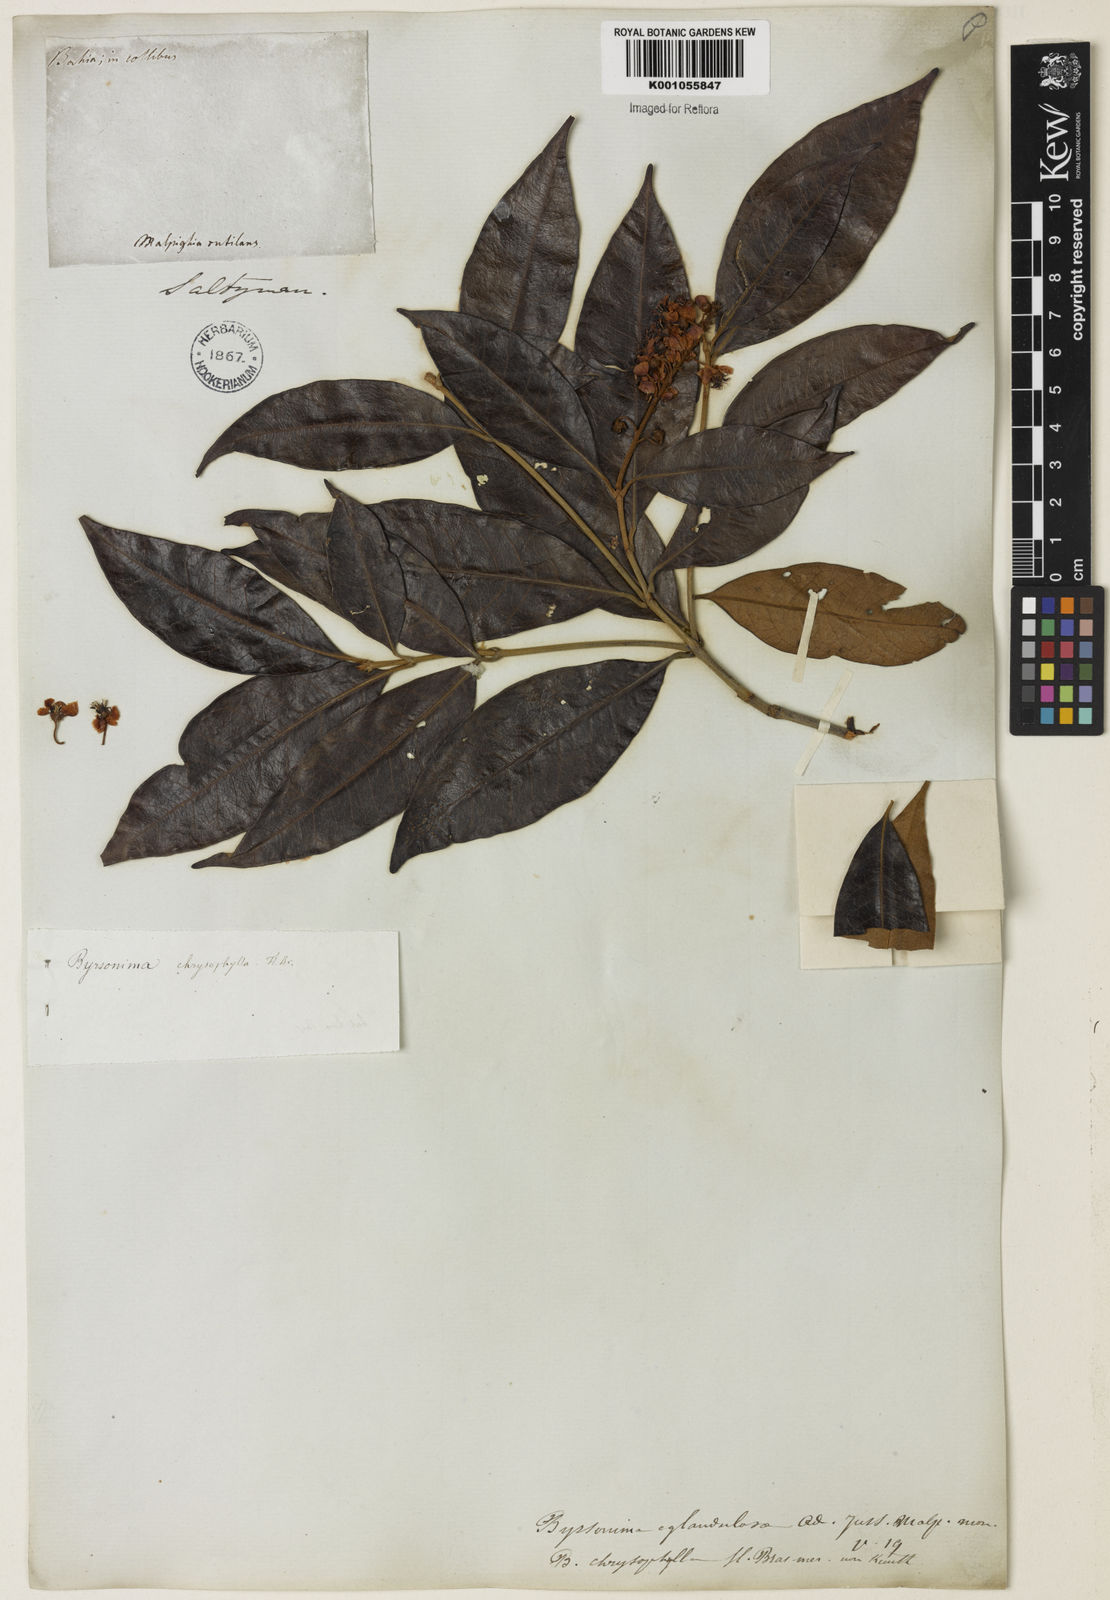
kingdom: Plantae
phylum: Tracheophyta
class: Magnoliopsida
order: Malpighiales
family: Malpighiaceae
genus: Byrsonima
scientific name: Byrsonima sericea
